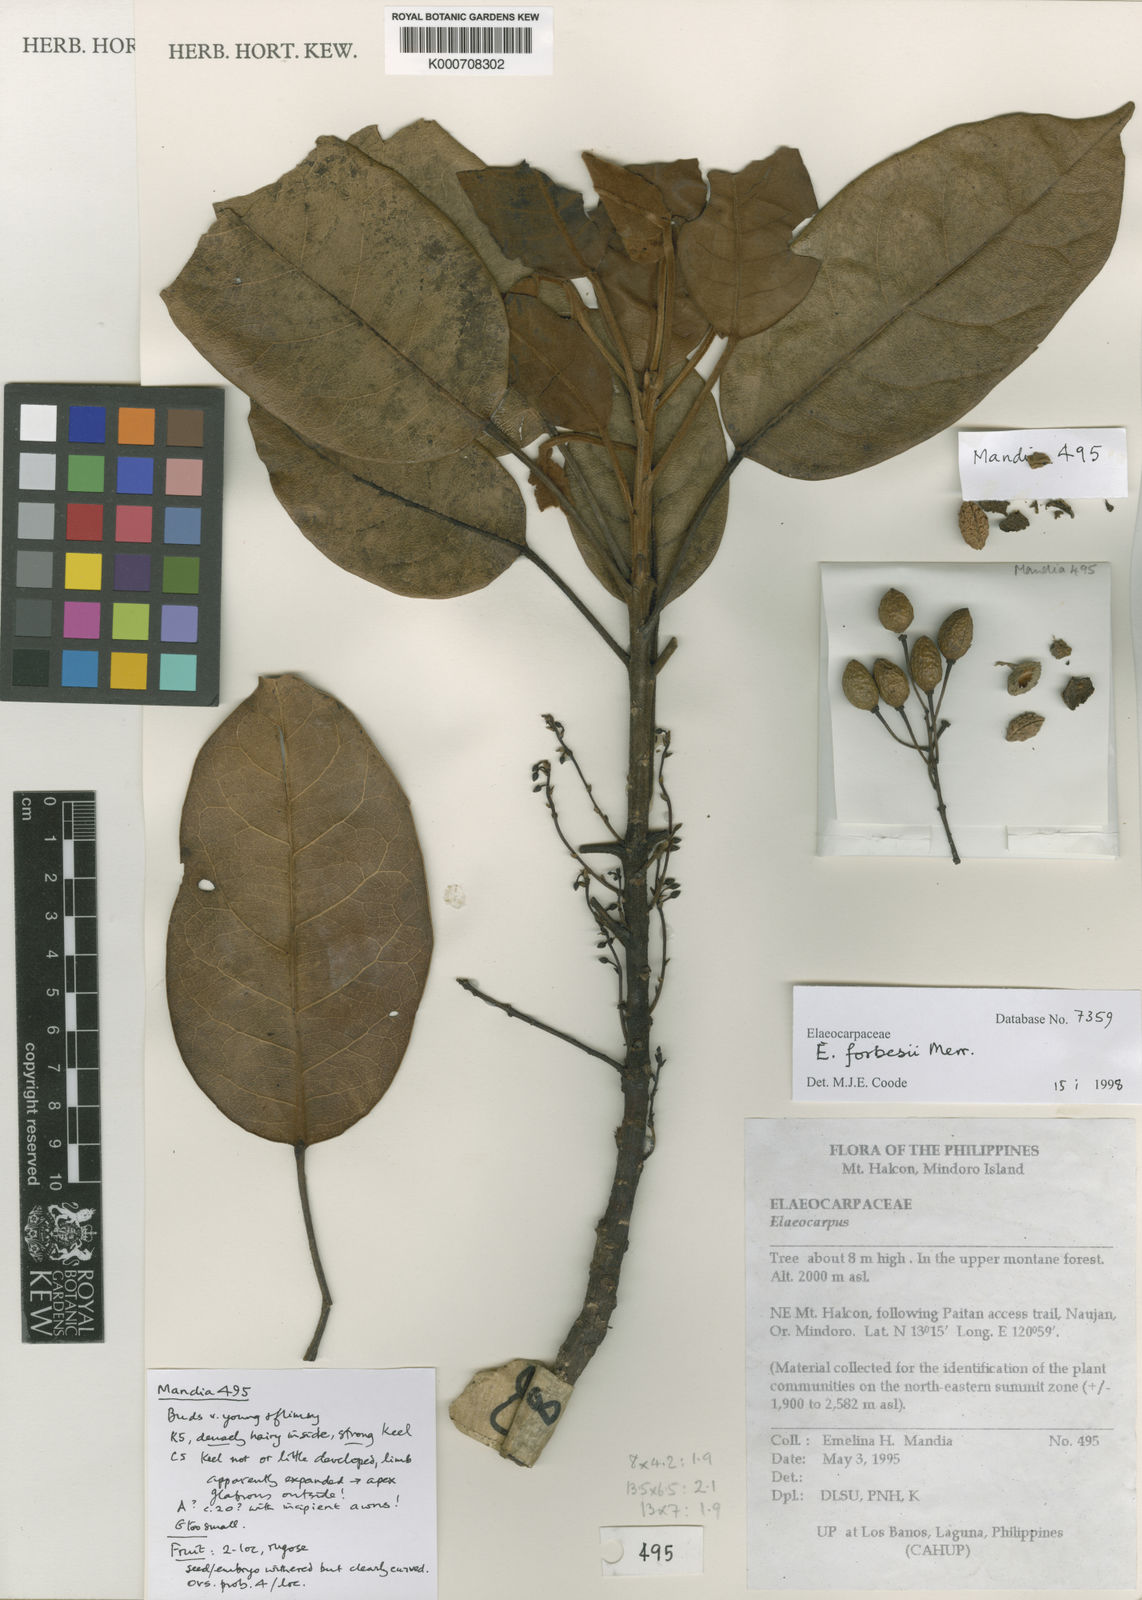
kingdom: Plantae
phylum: Tracheophyta
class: Magnoliopsida
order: Oxalidales
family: Elaeocarpaceae
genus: Elaeocarpus
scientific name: Elaeocarpus alanganorum
